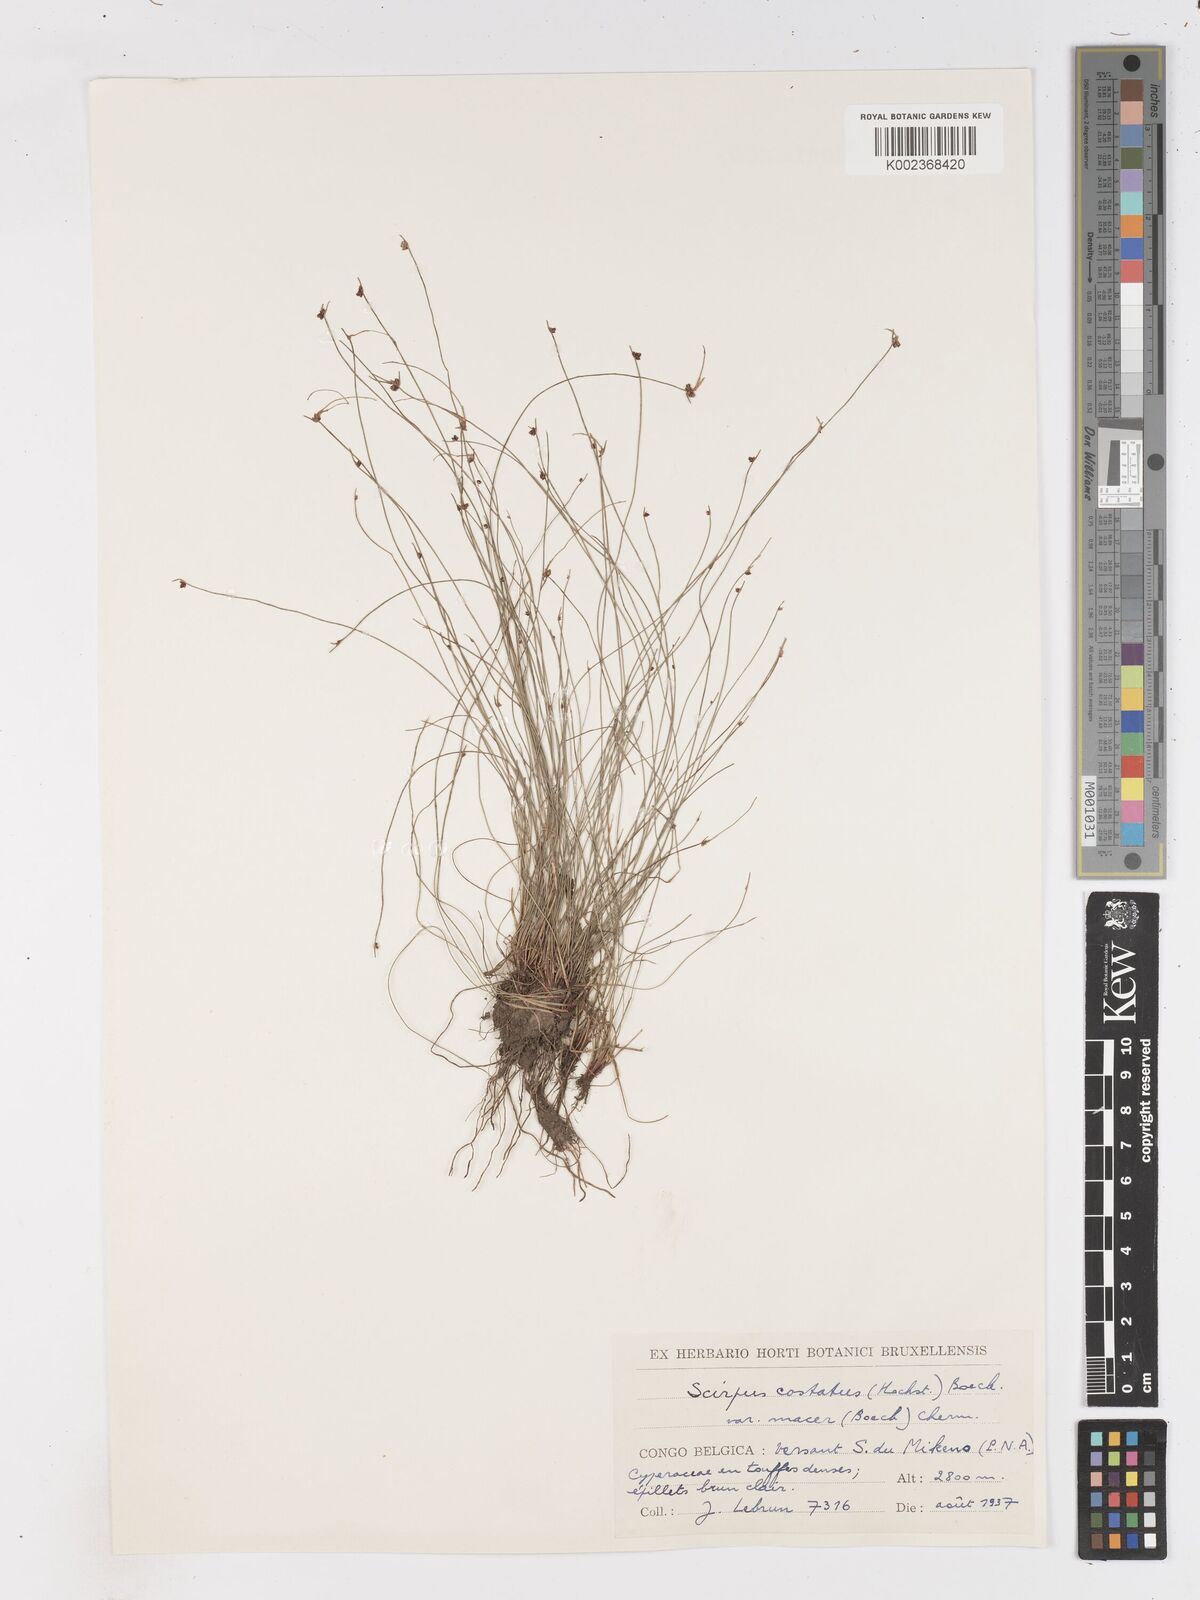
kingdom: Plantae
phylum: Tracheophyta
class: Liliopsida
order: Poales
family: Cyperaceae
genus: Isolepis
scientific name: Isolepis costata
